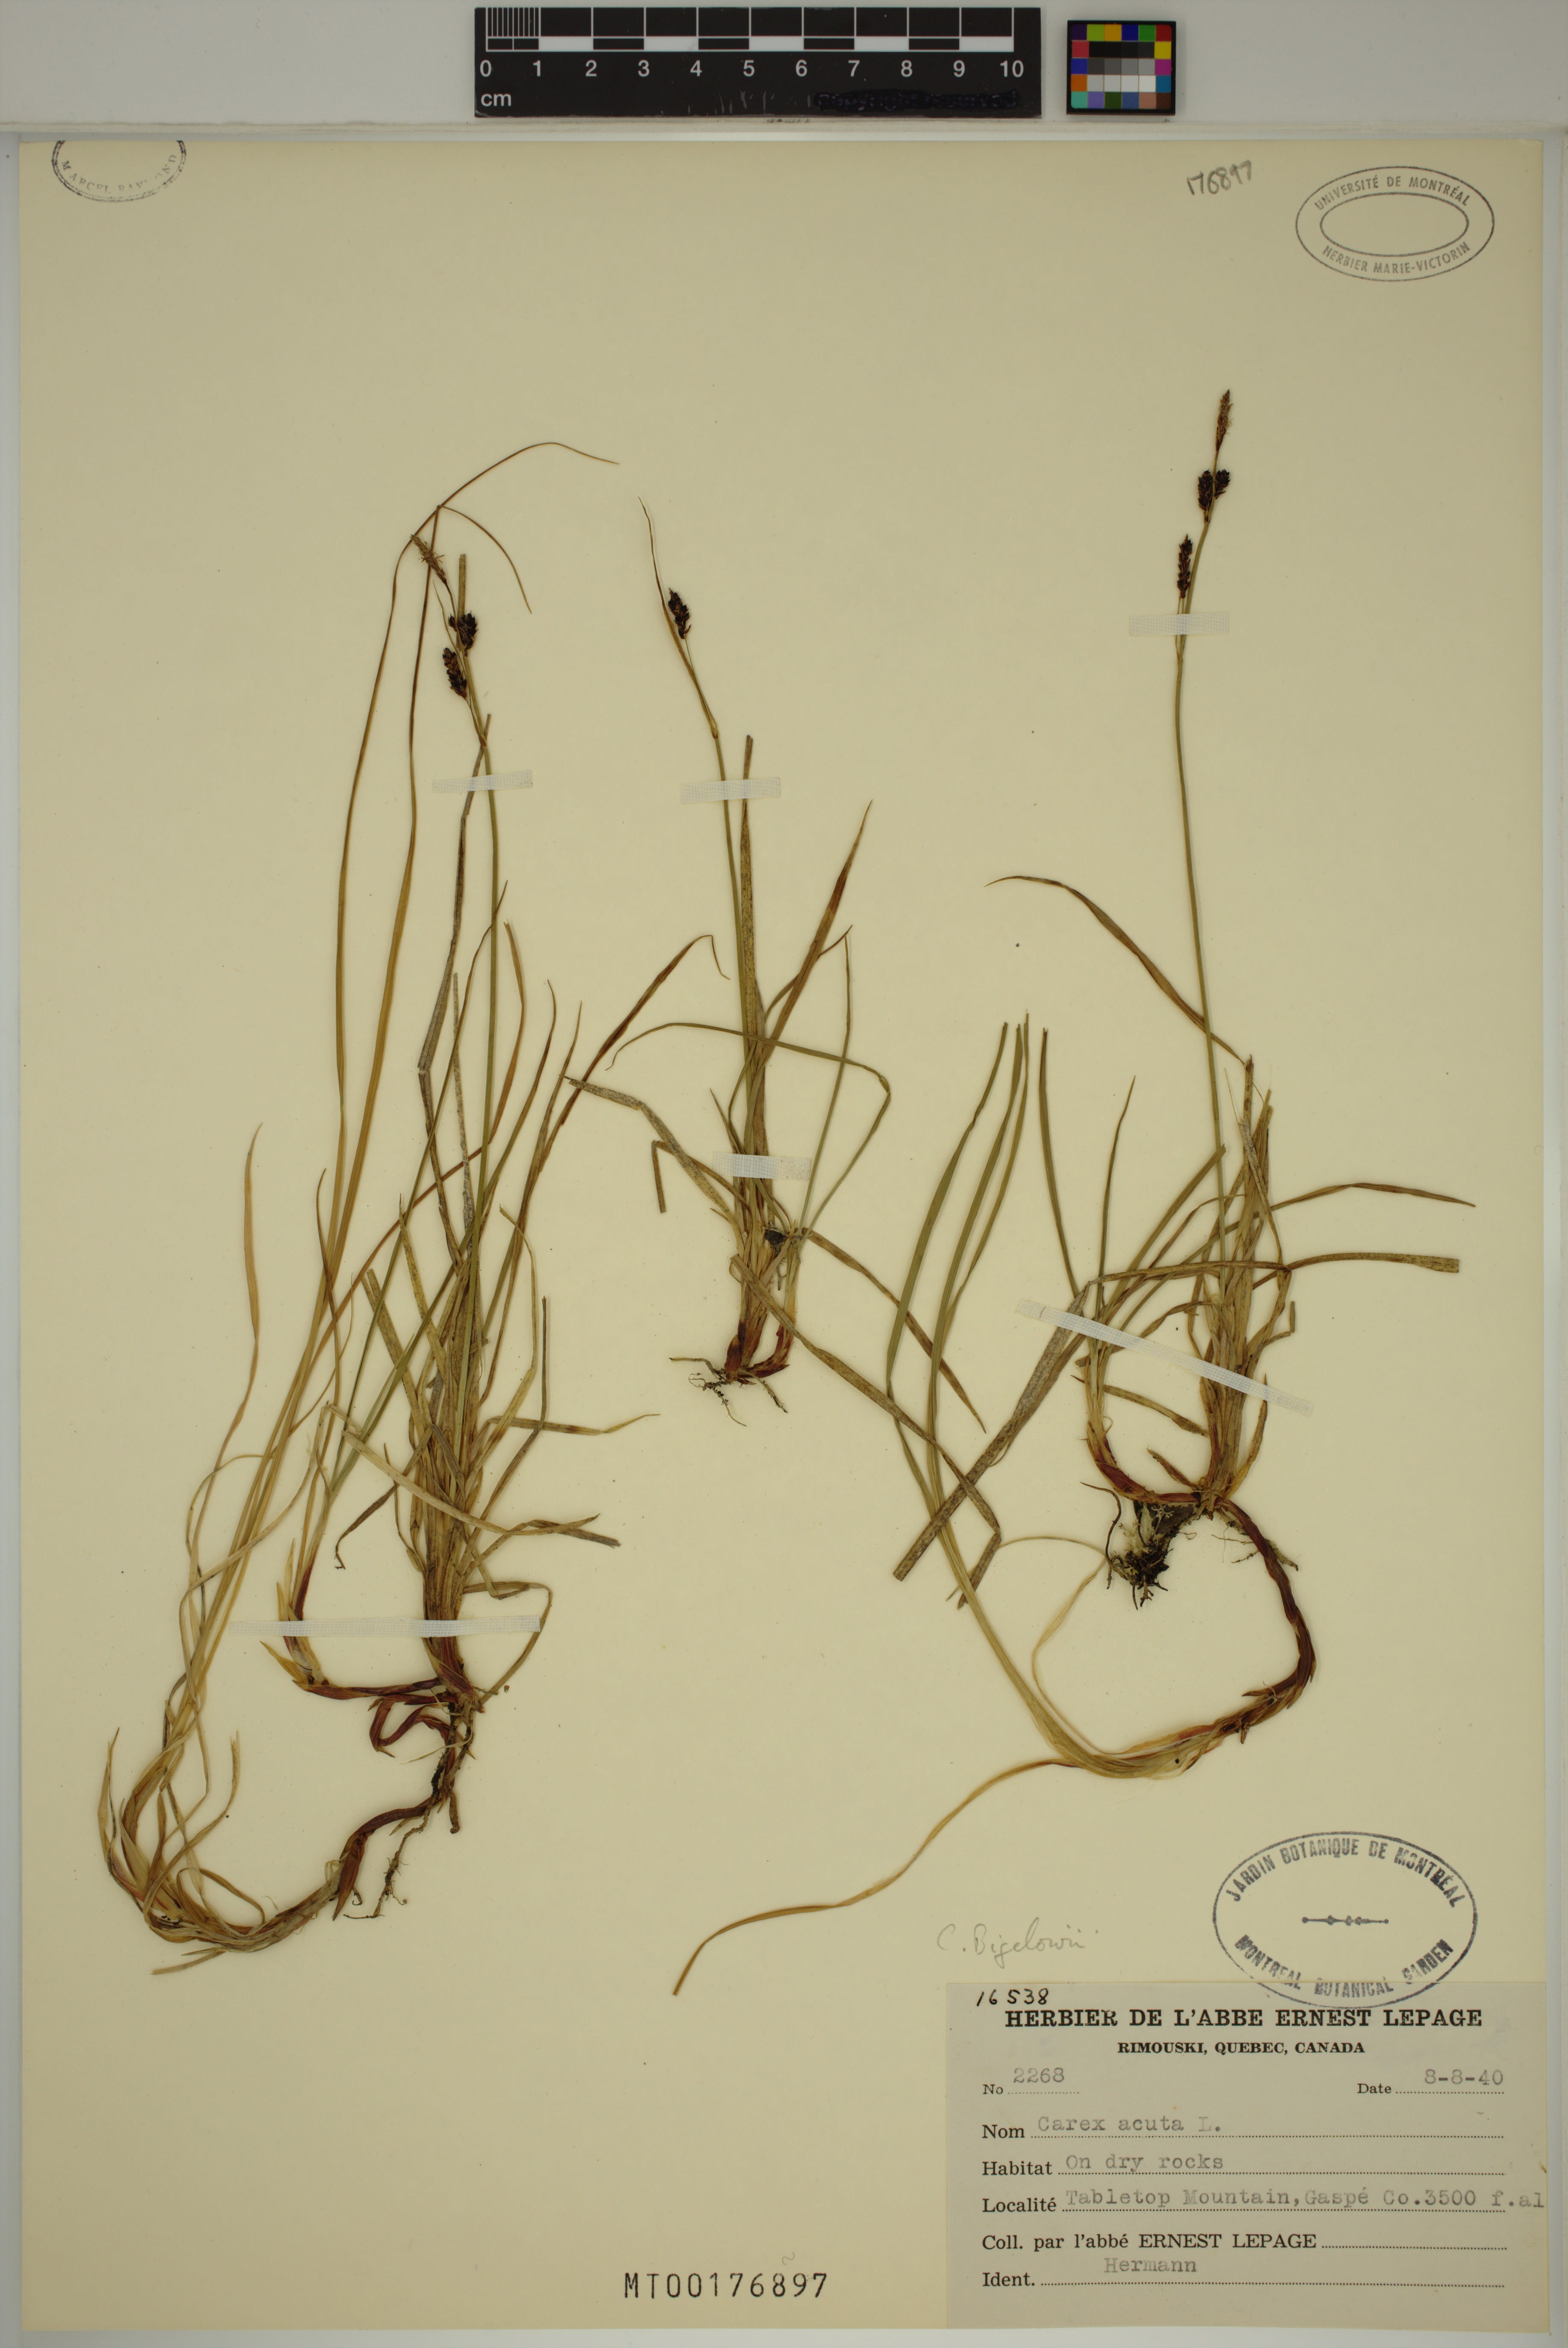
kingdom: Plantae
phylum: Tracheophyta
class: Liliopsida
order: Poales
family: Cyperaceae
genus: Carex
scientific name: Carex bigelowii
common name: Stiff sedge
